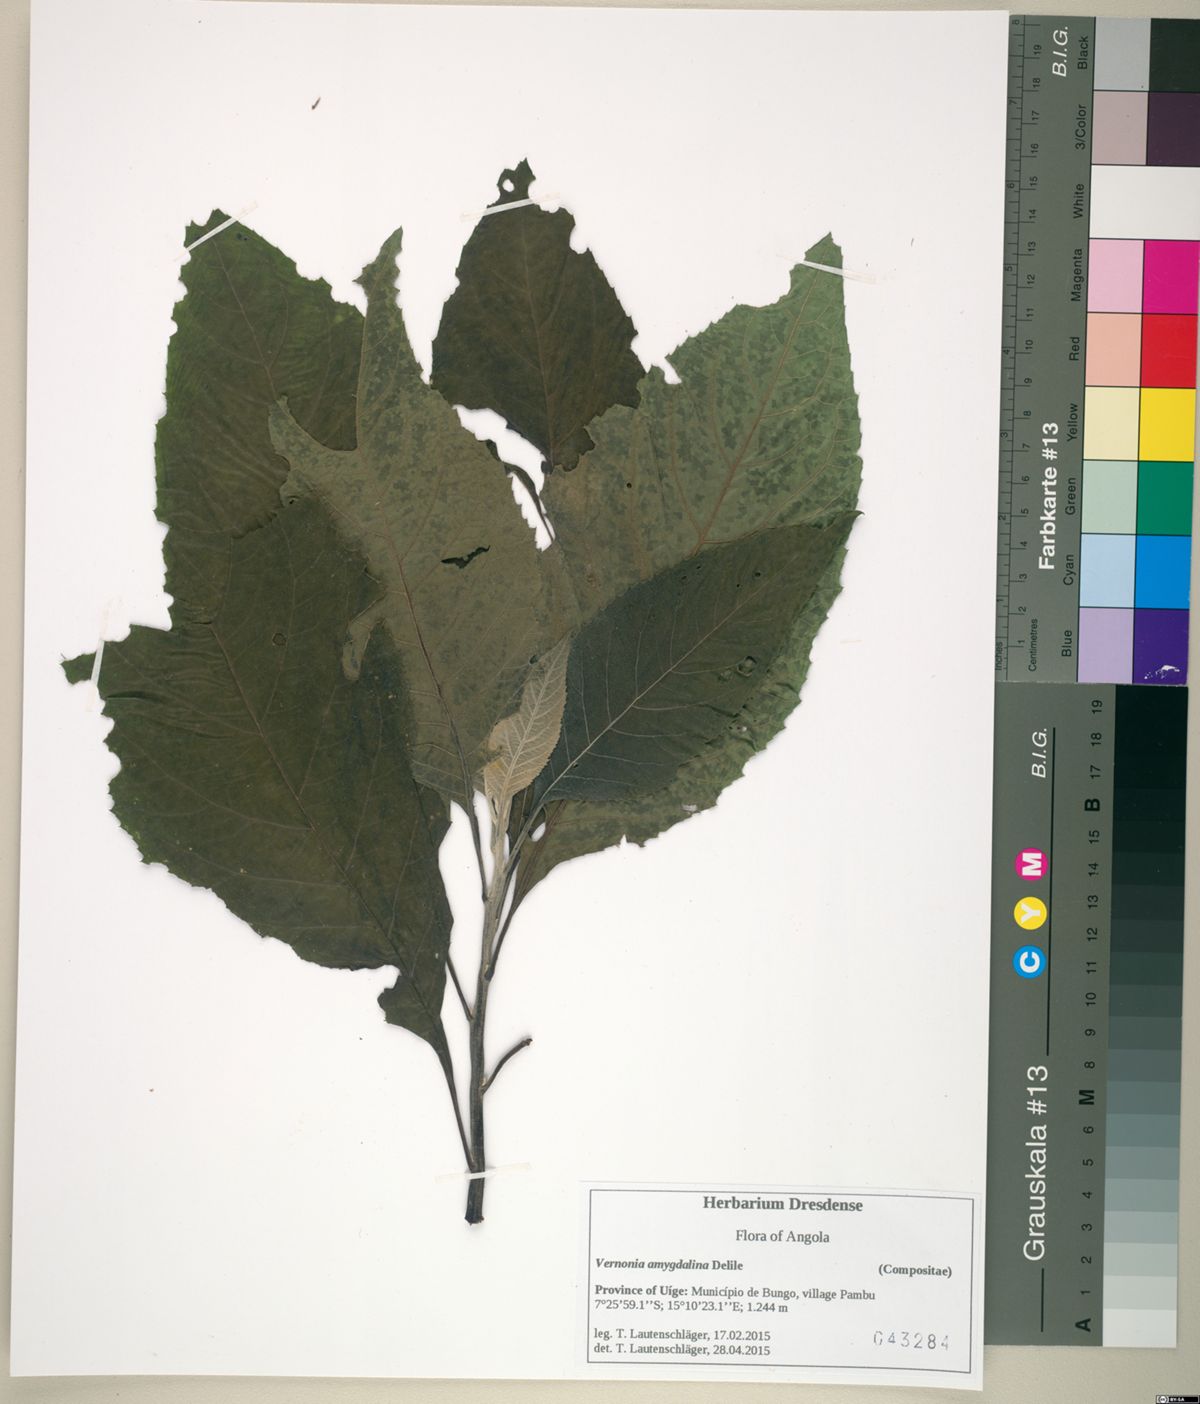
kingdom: Plantae
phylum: Tracheophyta
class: Magnoliopsida
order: Asterales
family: Asteraceae
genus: Gymnanthemum
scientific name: Gymnanthemum amygdalinum
